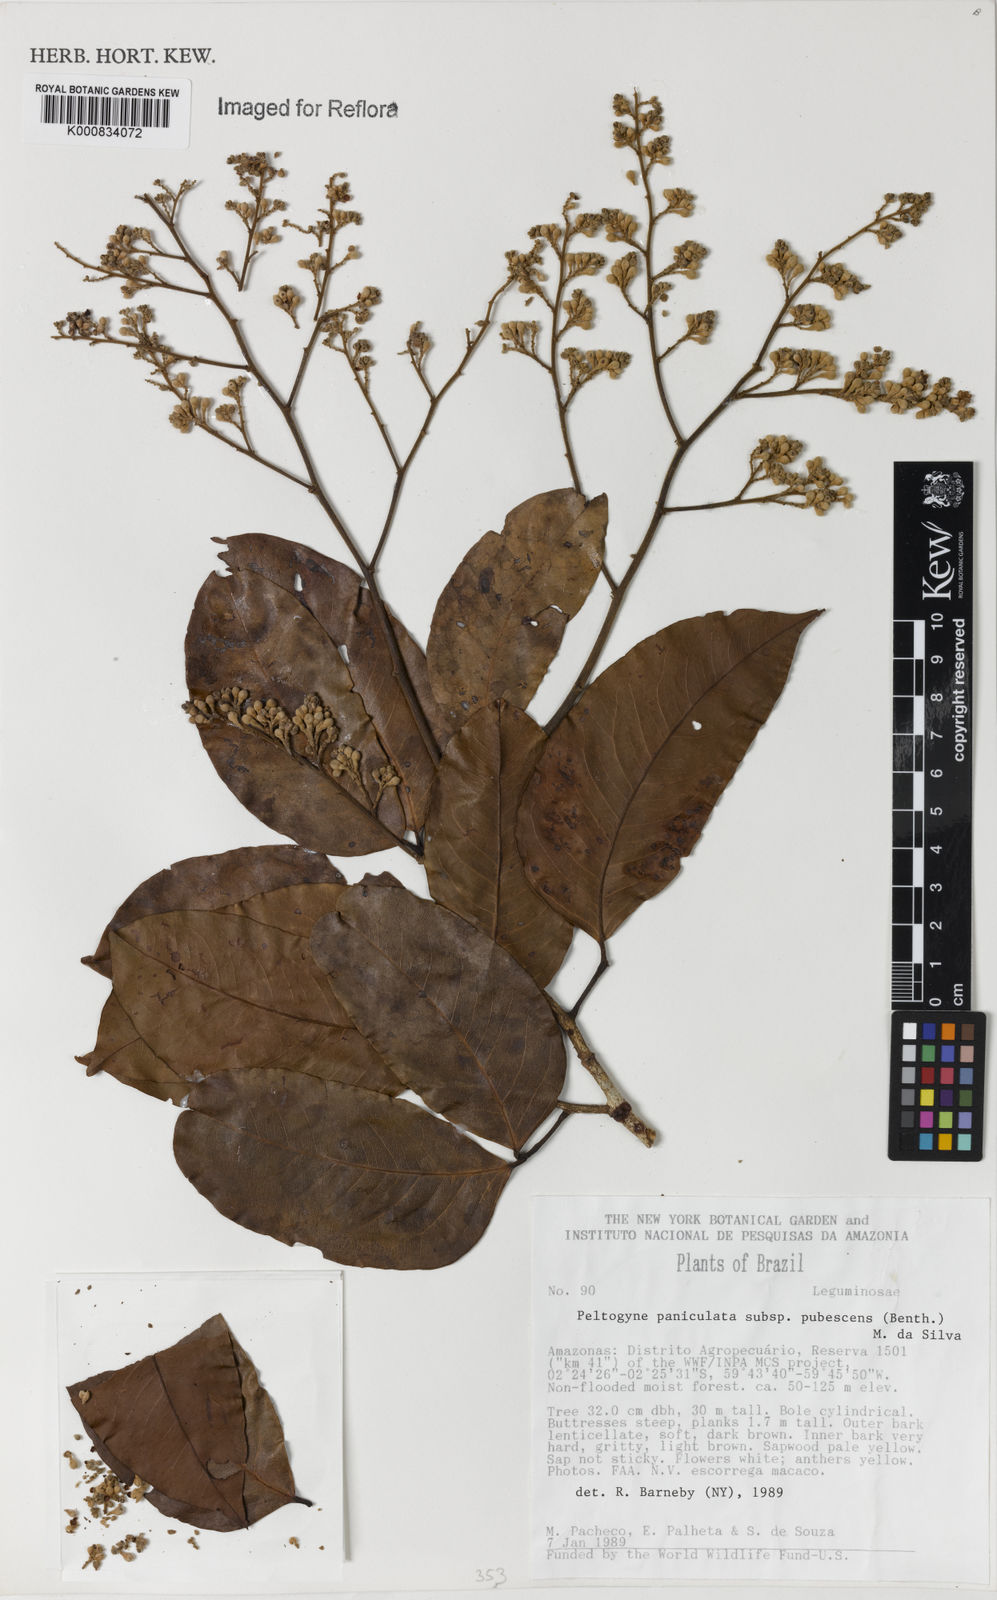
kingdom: Plantae
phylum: Tracheophyta
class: Magnoliopsida
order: Fabales
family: Fabaceae
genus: Peltogyne
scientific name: Peltogyne paniculata
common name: Purpleheart
